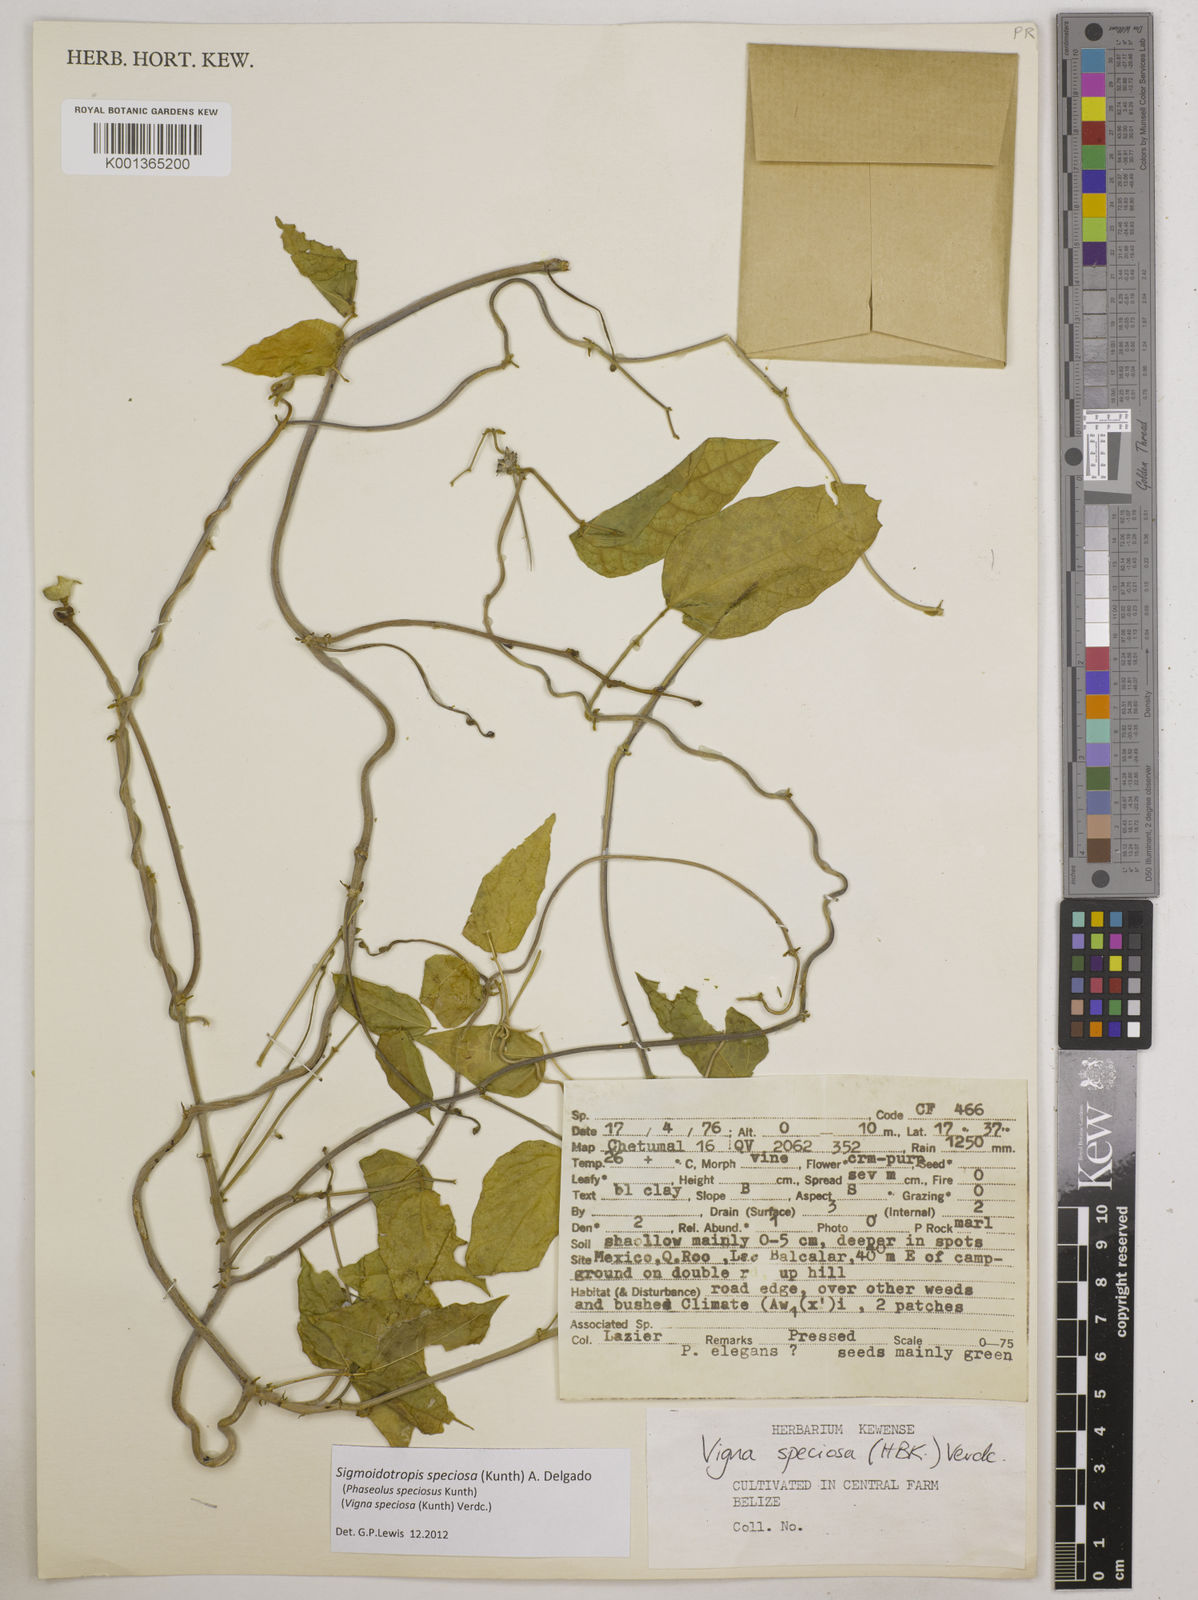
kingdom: Plantae
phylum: Tracheophyta
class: Magnoliopsida
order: Fabales
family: Fabaceae
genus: Sigmoidotropis
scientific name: Sigmoidotropis speciosa
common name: Snail flower
